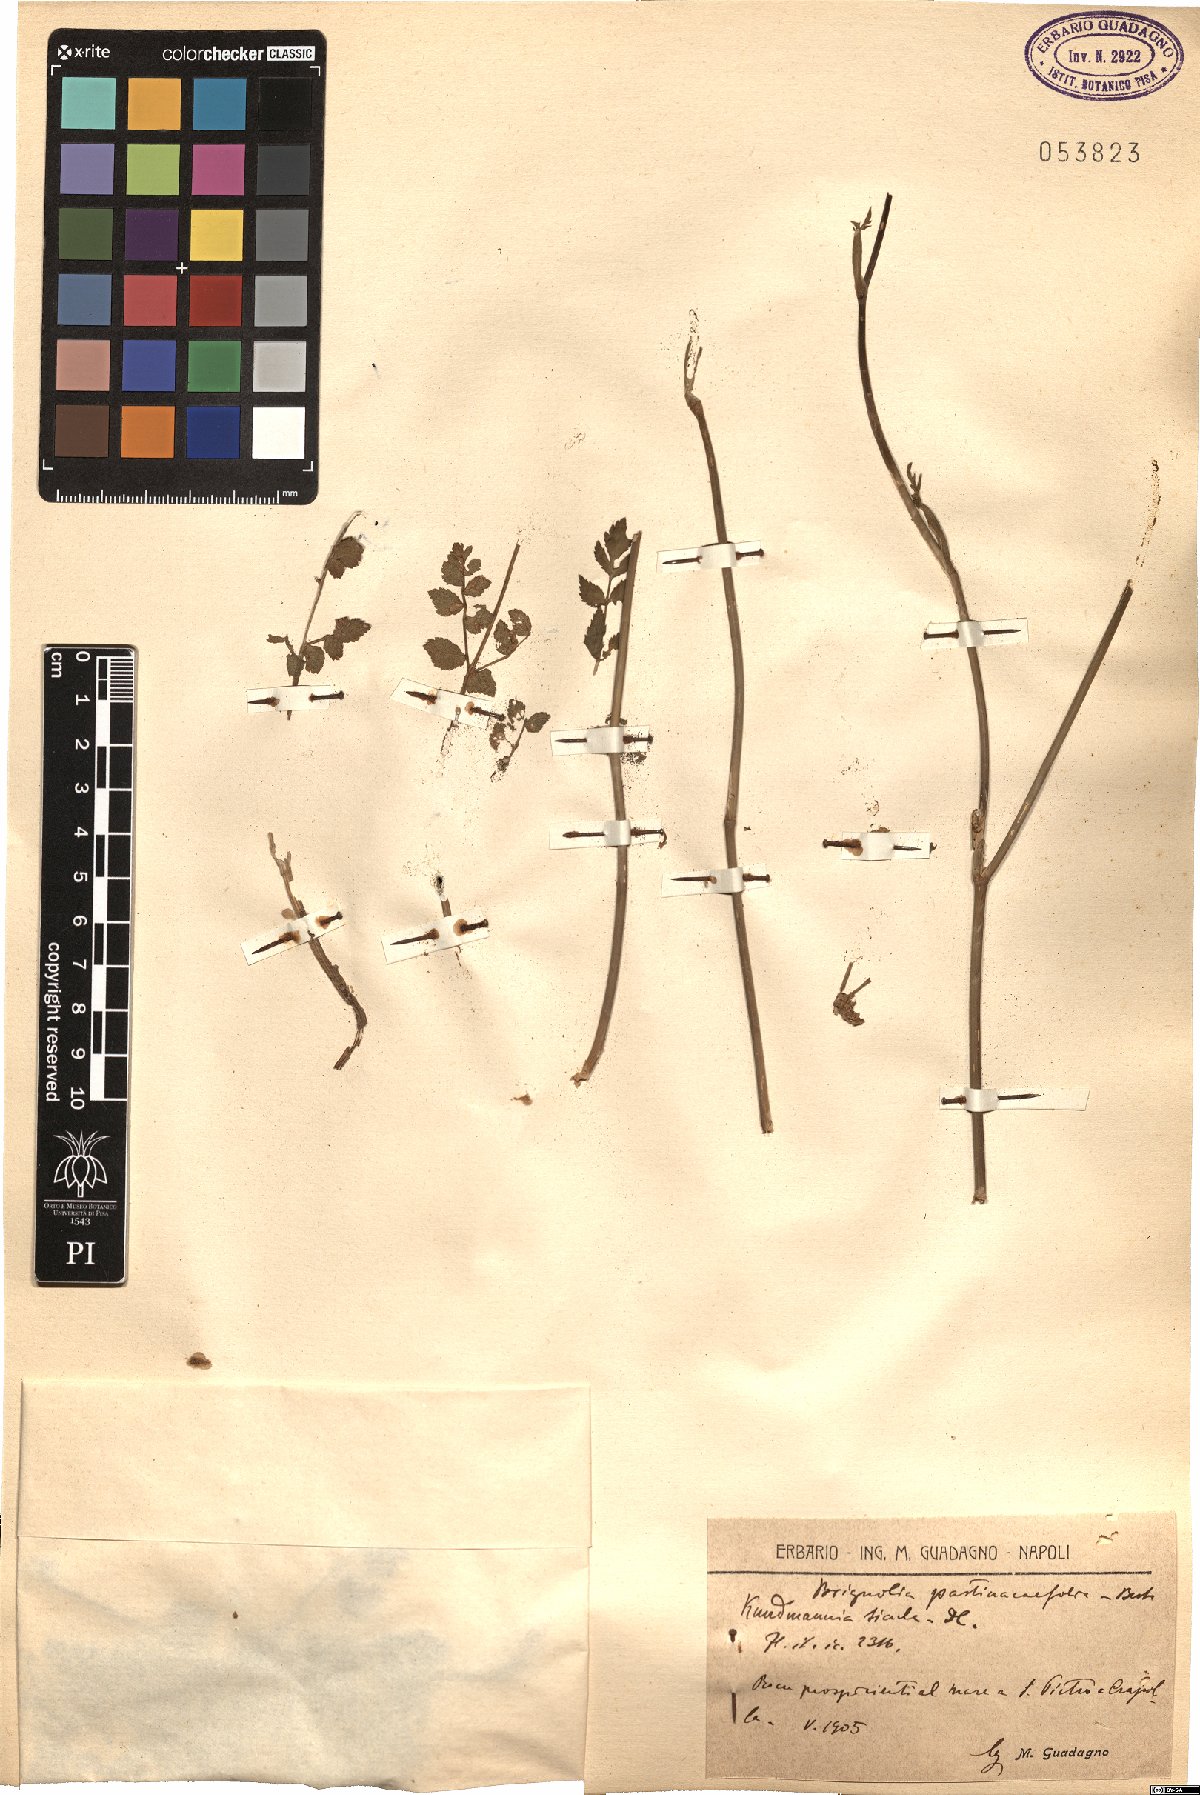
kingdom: Plantae
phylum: Tracheophyta
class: Magnoliopsida
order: Apiales
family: Apiaceae
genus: Kundmannia
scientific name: Kundmannia sicula
